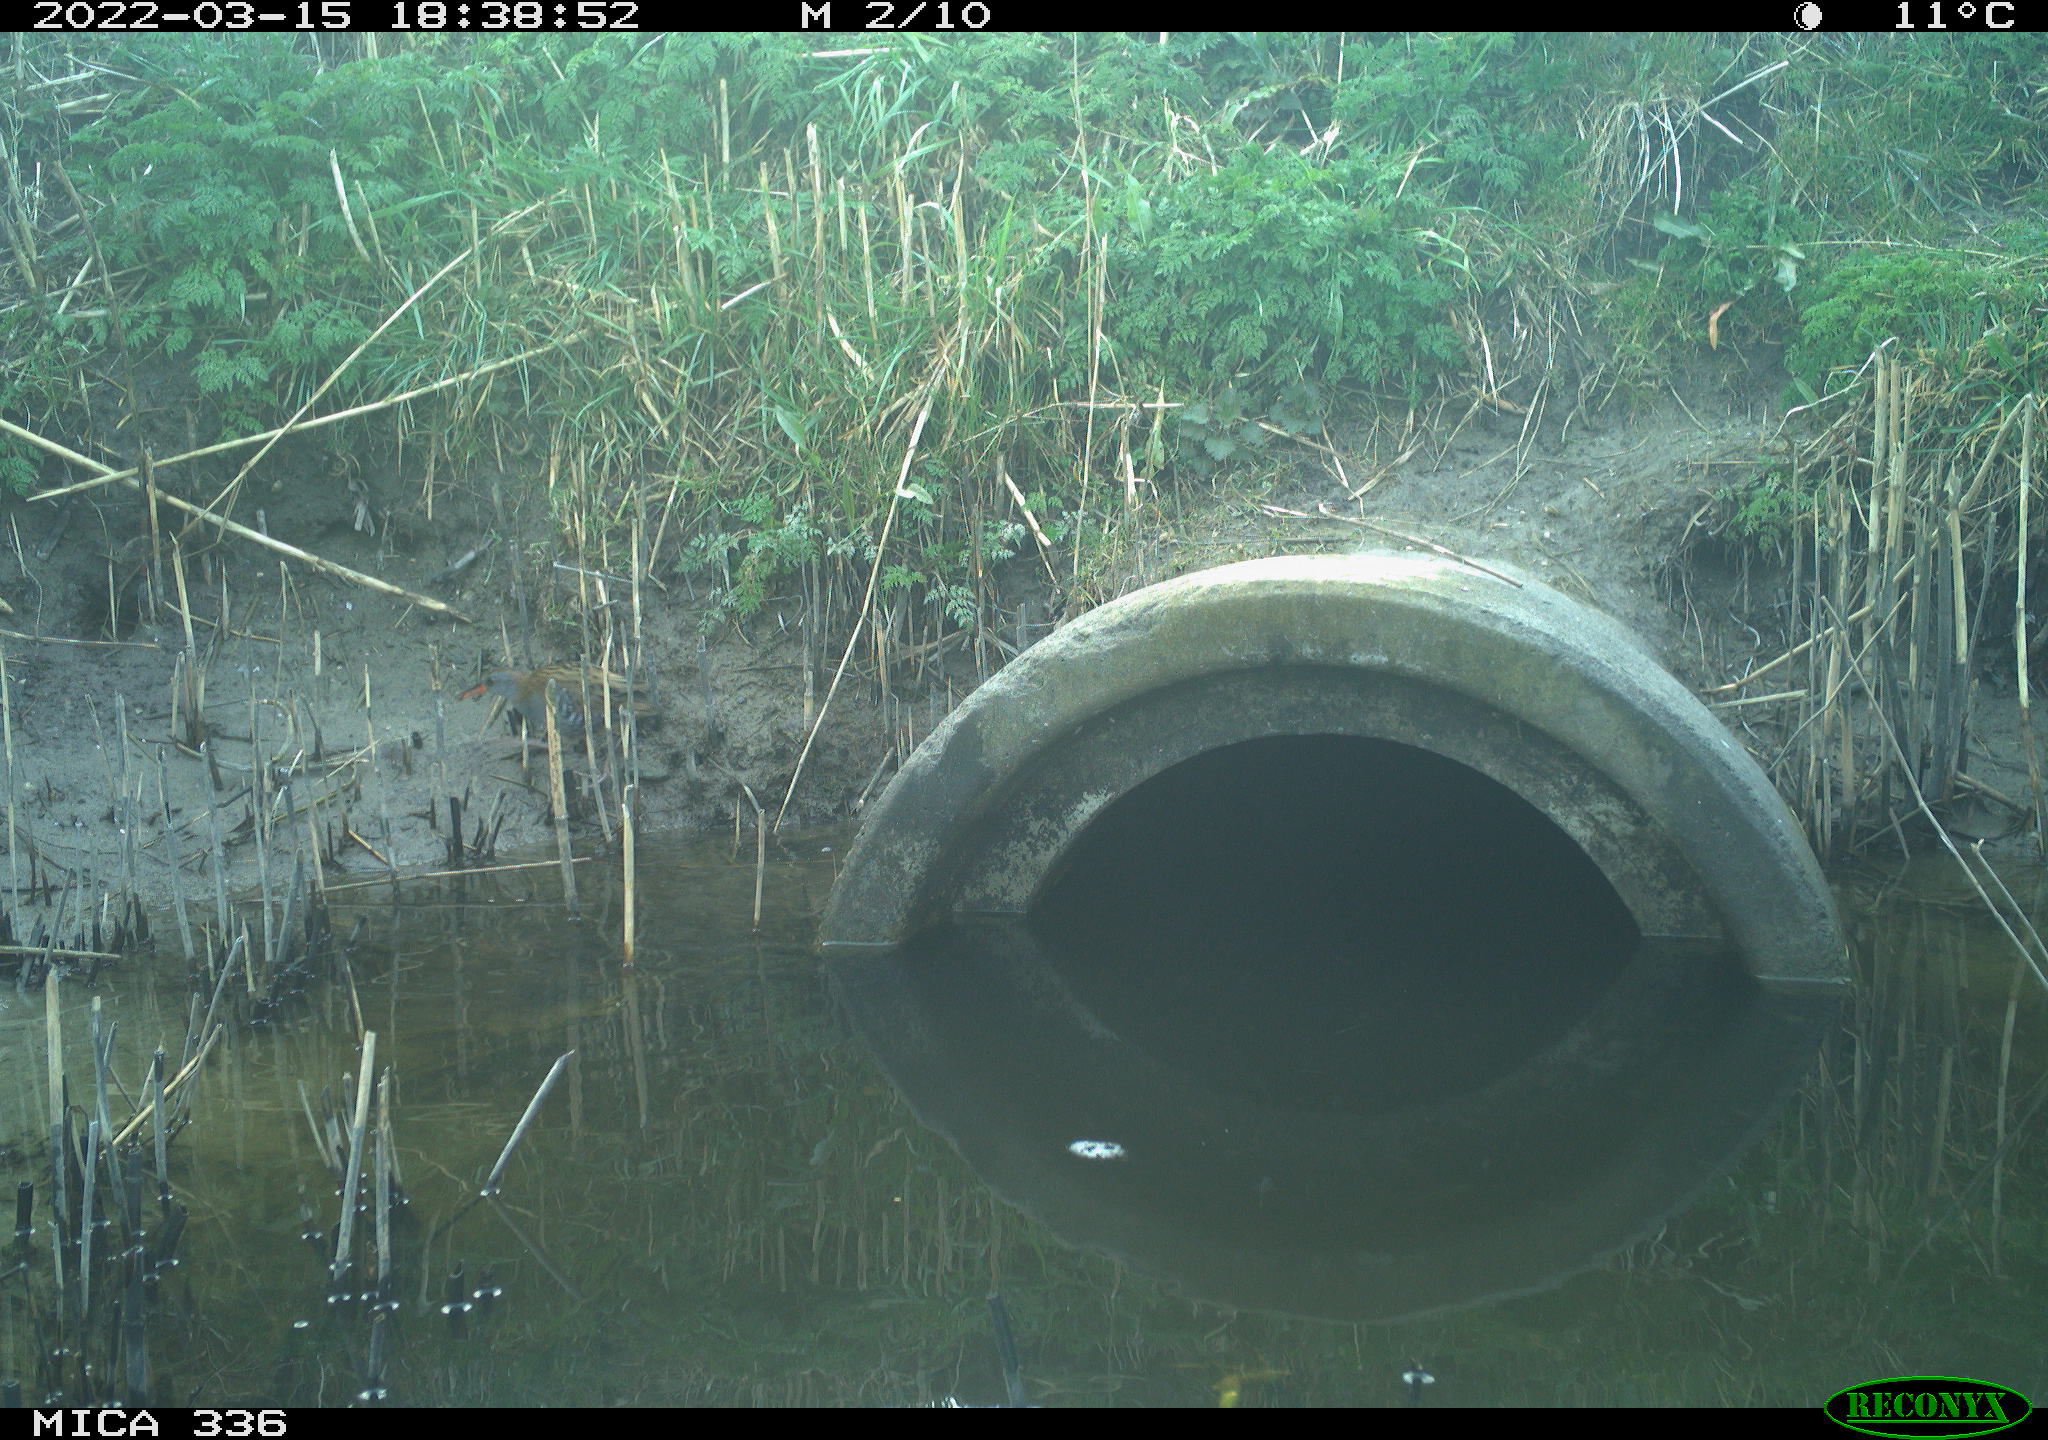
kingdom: Animalia
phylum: Chordata
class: Aves
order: Gruiformes
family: Rallidae
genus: Rallus
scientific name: Rallus aquaticus
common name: Water rail
